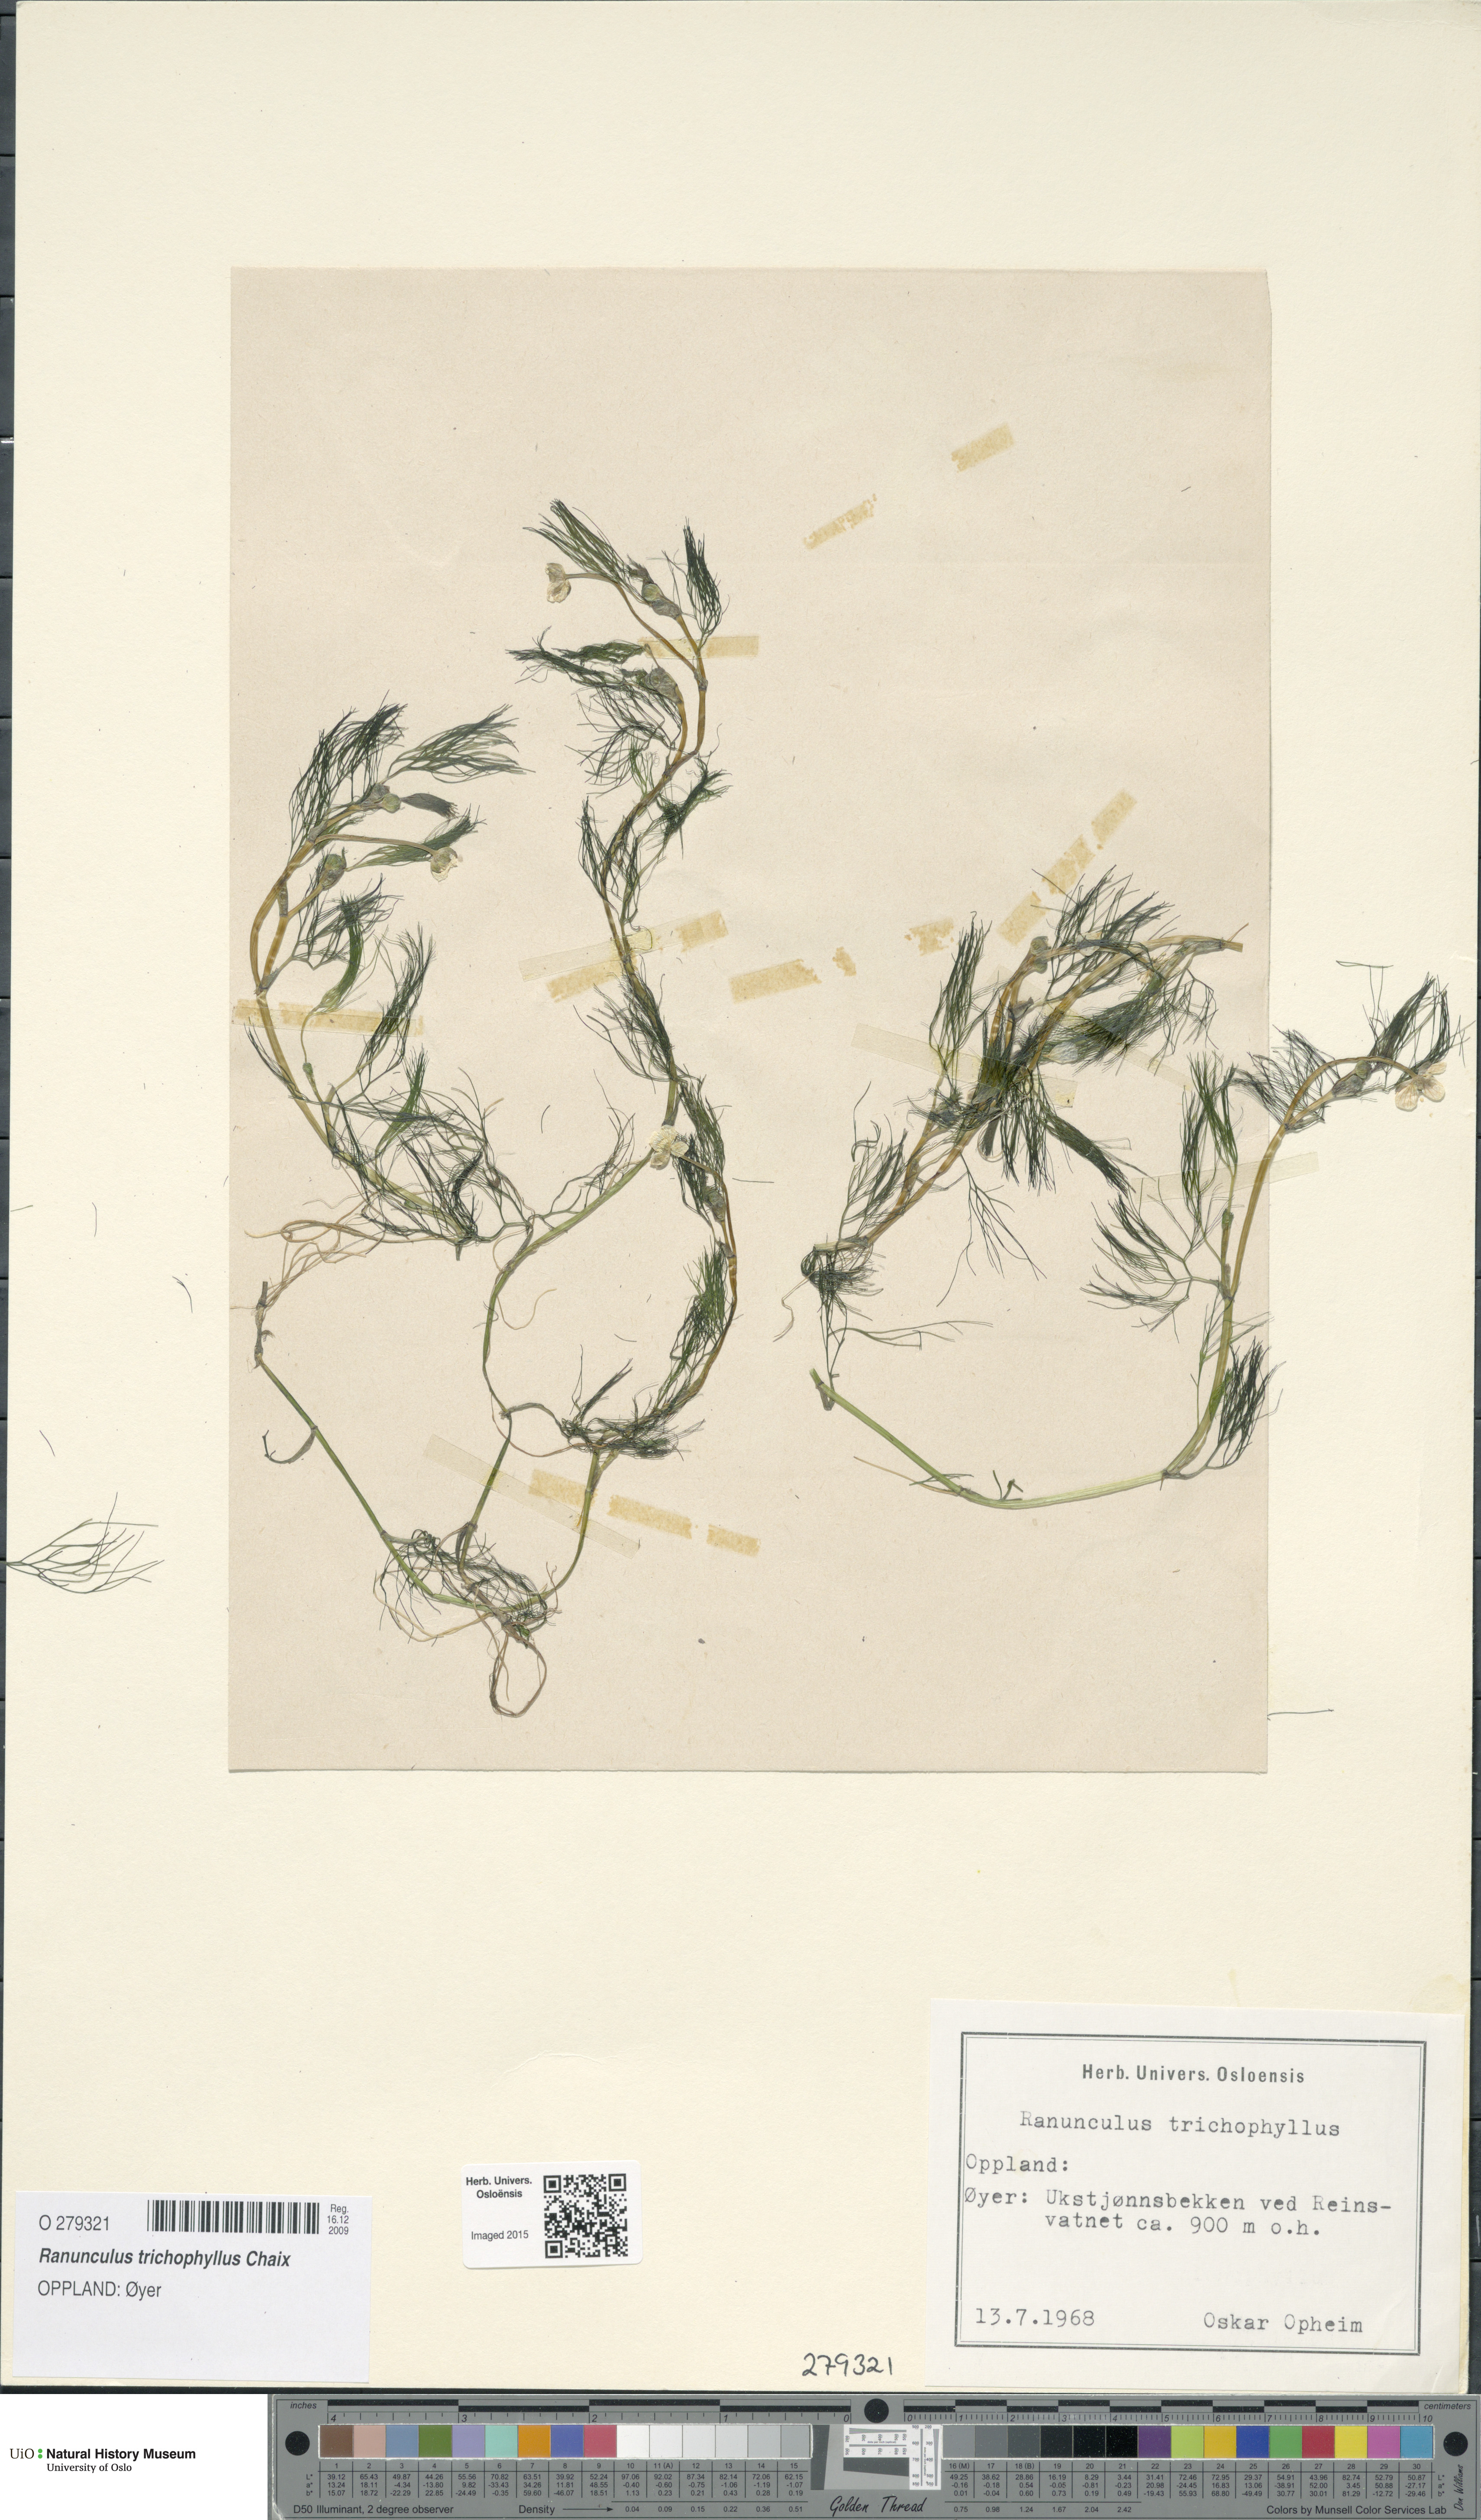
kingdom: Plantae
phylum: Tracheophyta
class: Magnoliopsida
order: Ranunculales
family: Ranunculaceae
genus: Ranunculus
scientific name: Ranunculus trichophyllus
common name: Thread-leaved water-crowfoot
